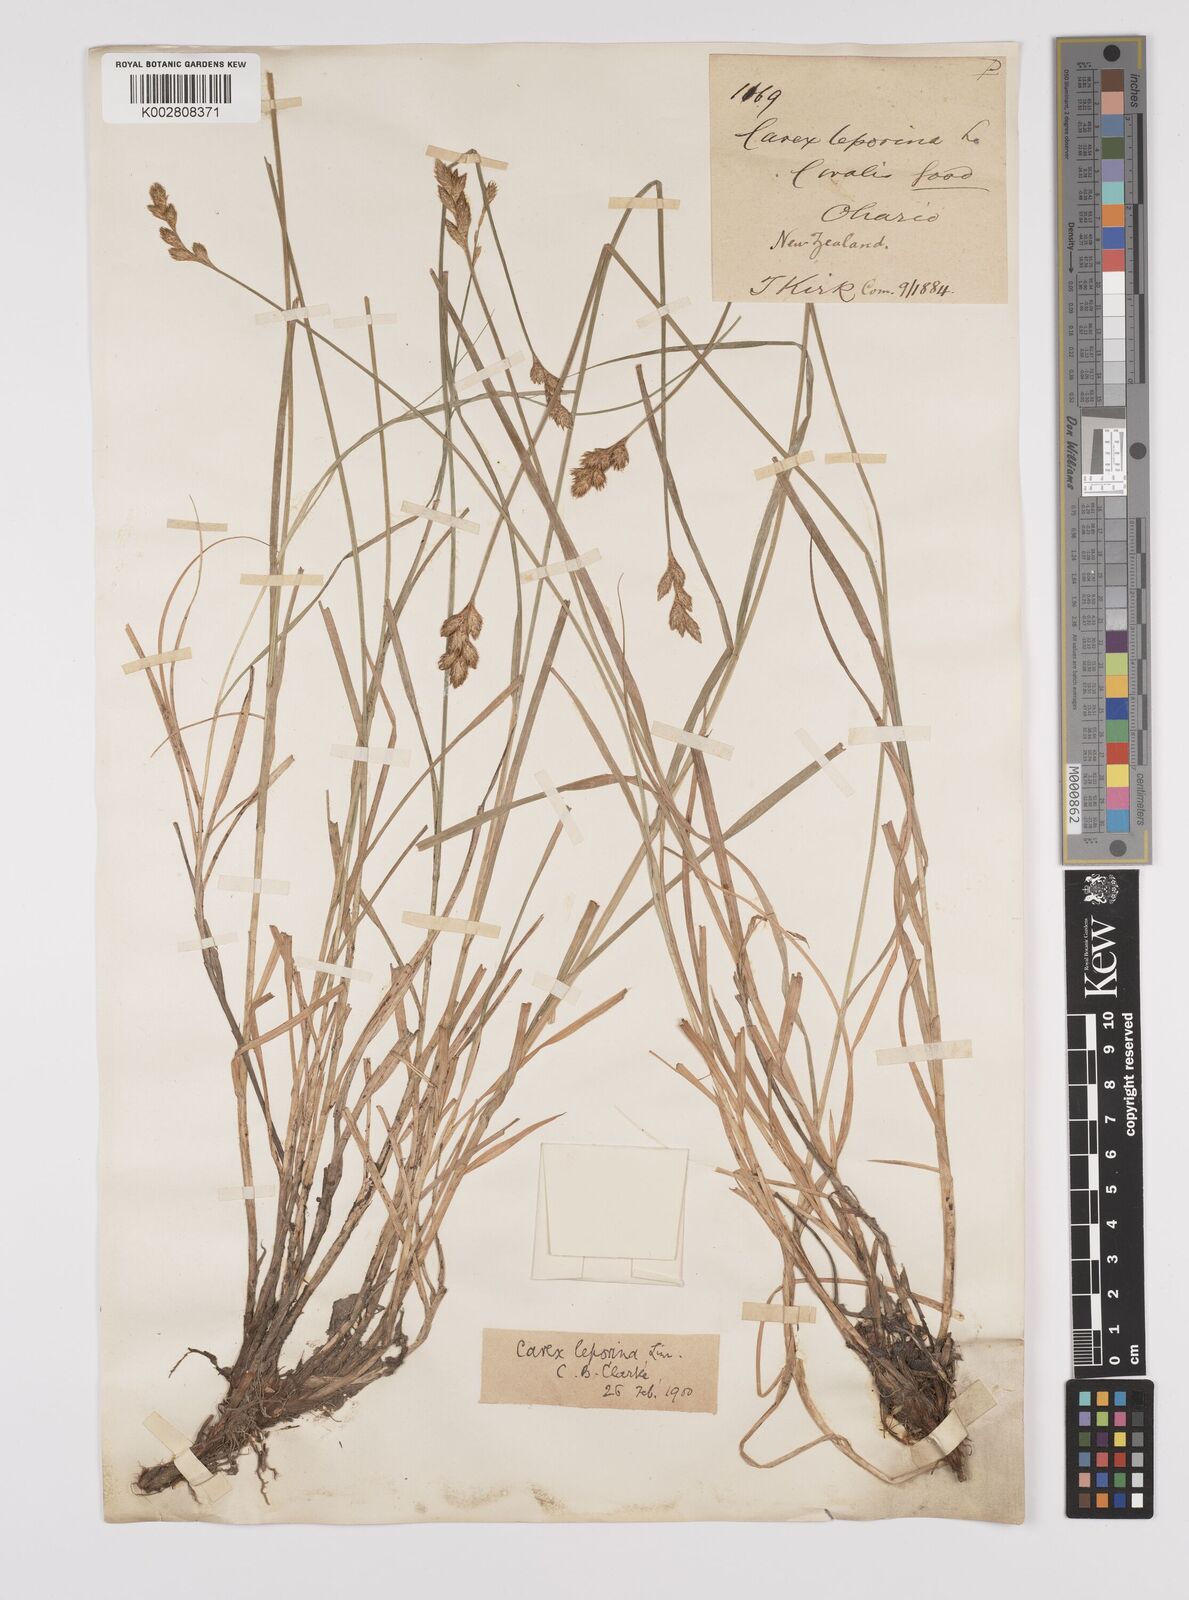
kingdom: Plantae
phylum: Tracheophyta
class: Liliopsida
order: Poales
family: Cyperaceae
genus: Carex
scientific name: Carex leporina
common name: Oval sedge
